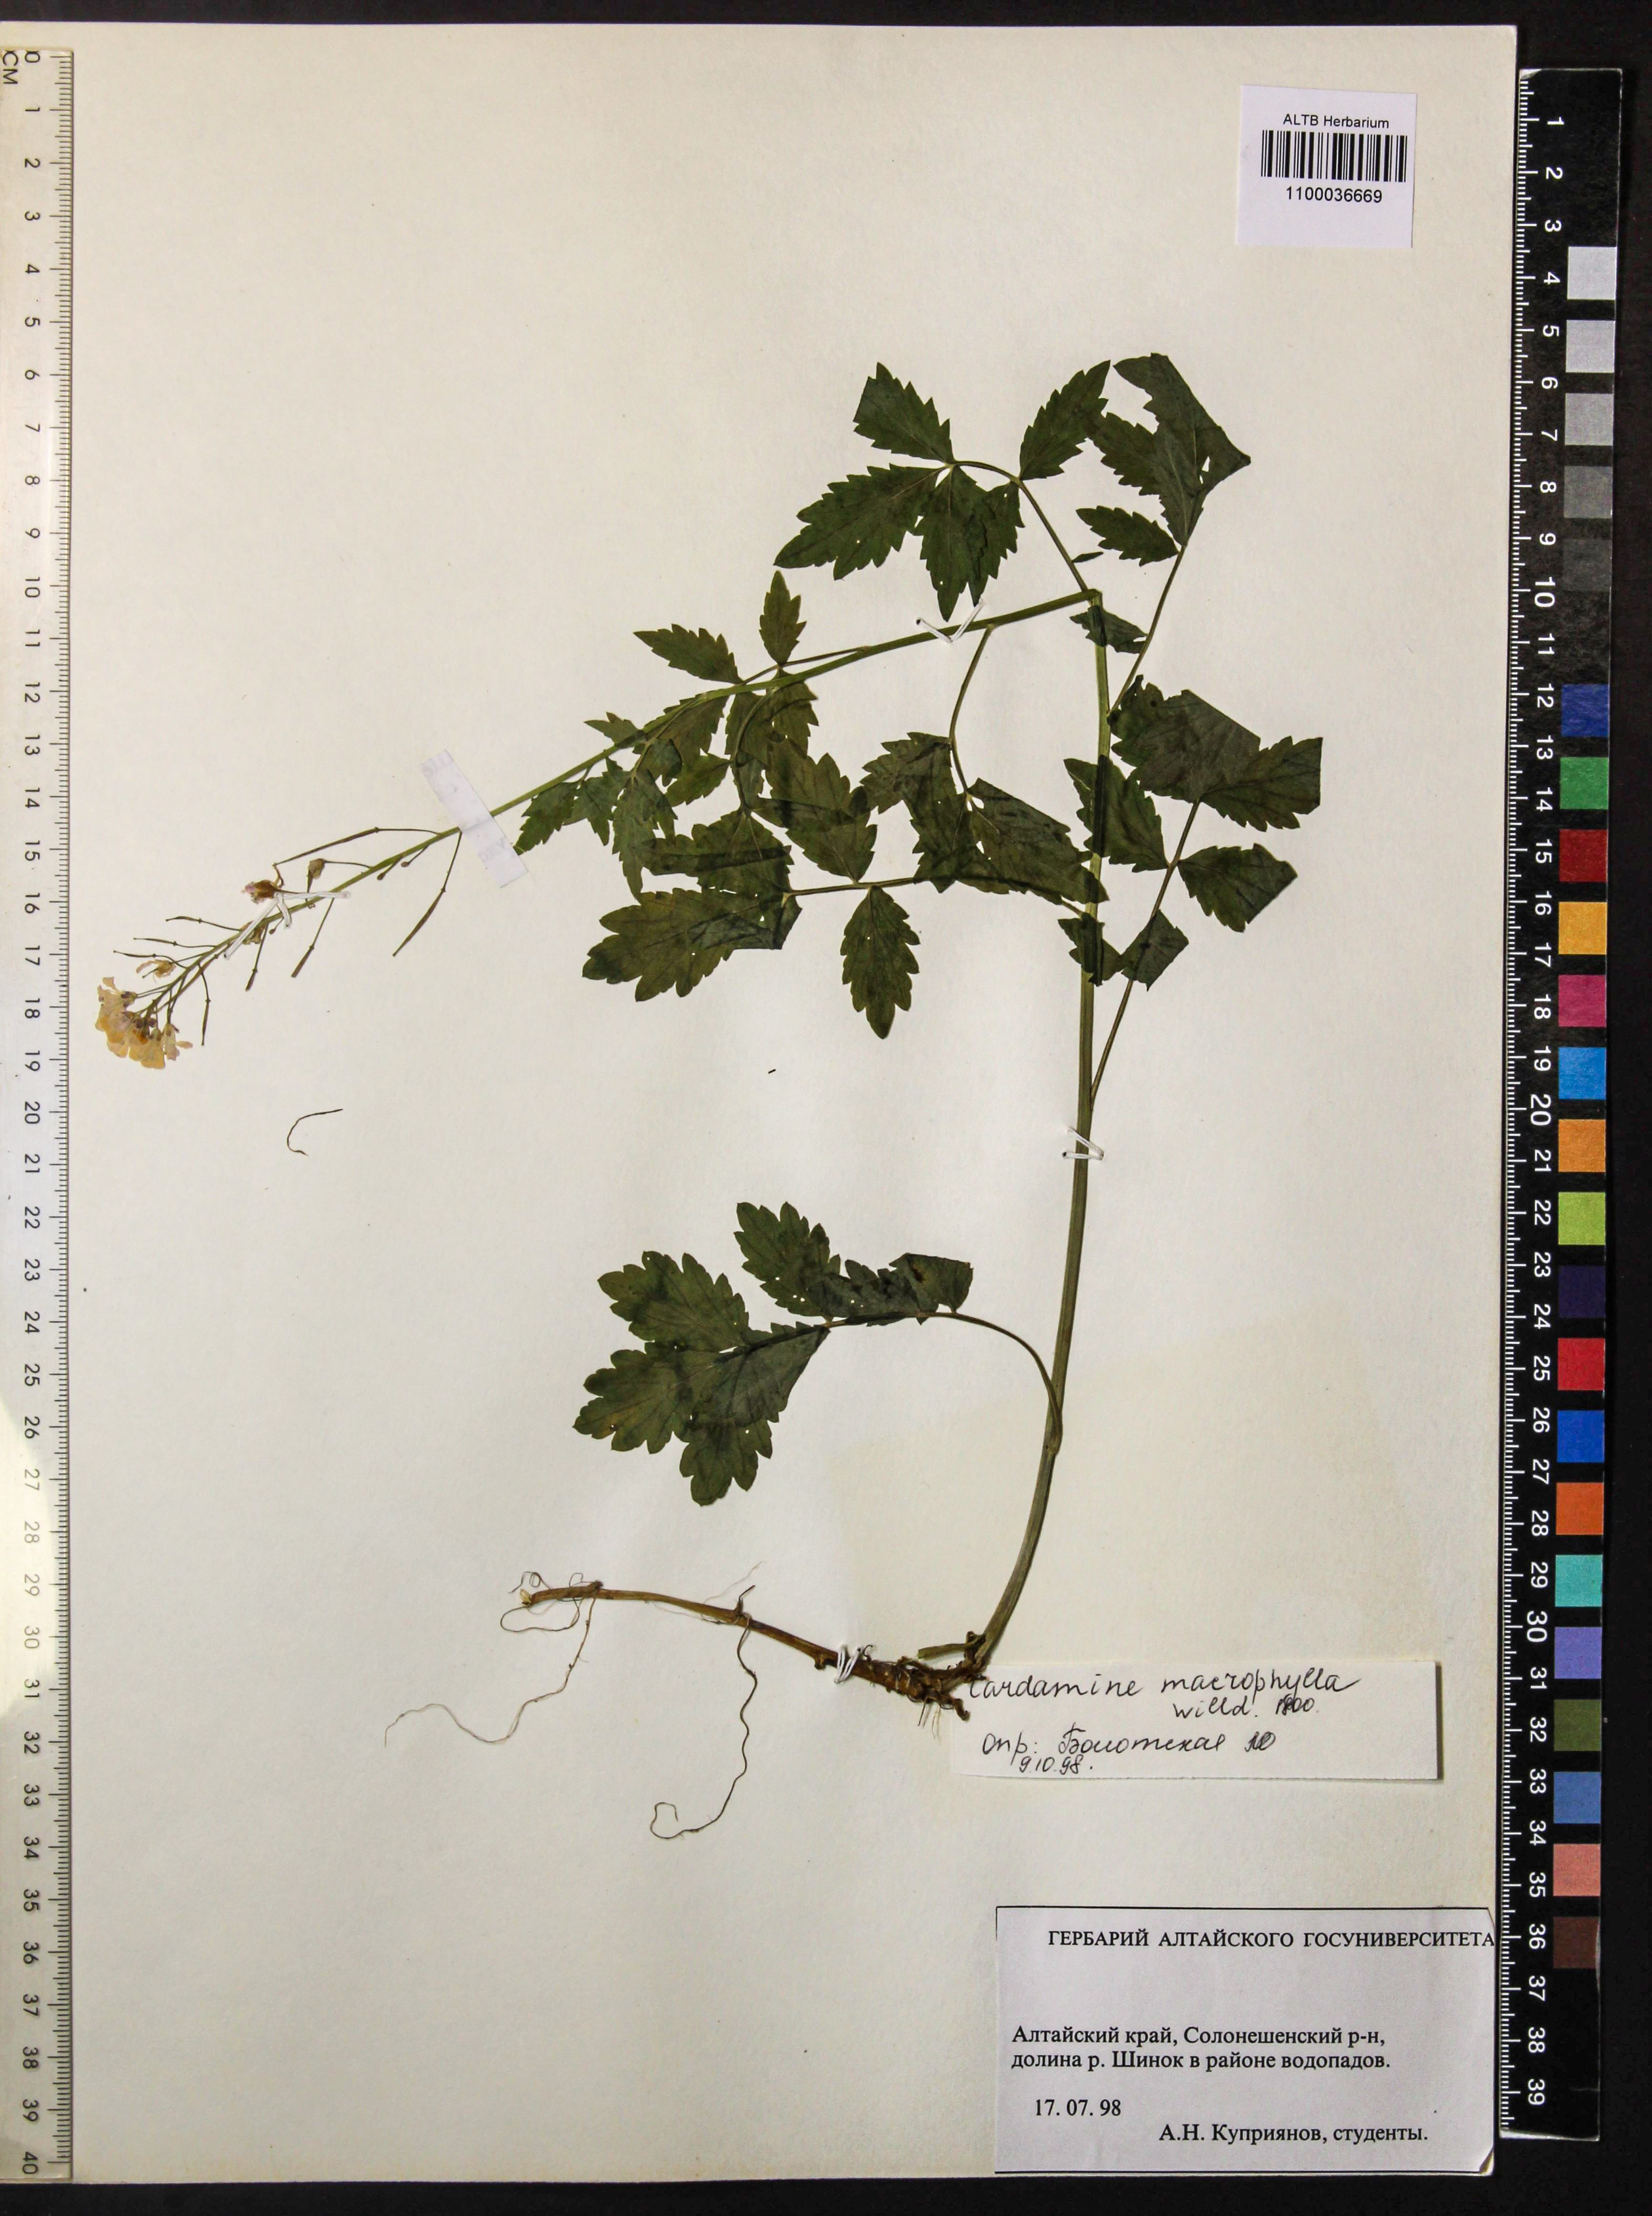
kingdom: Plantae
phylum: Tracheophyta
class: Magnoliopsida
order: Brassicales
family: Brassicaceae
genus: Cardamine
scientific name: Cardamine macrophylla
